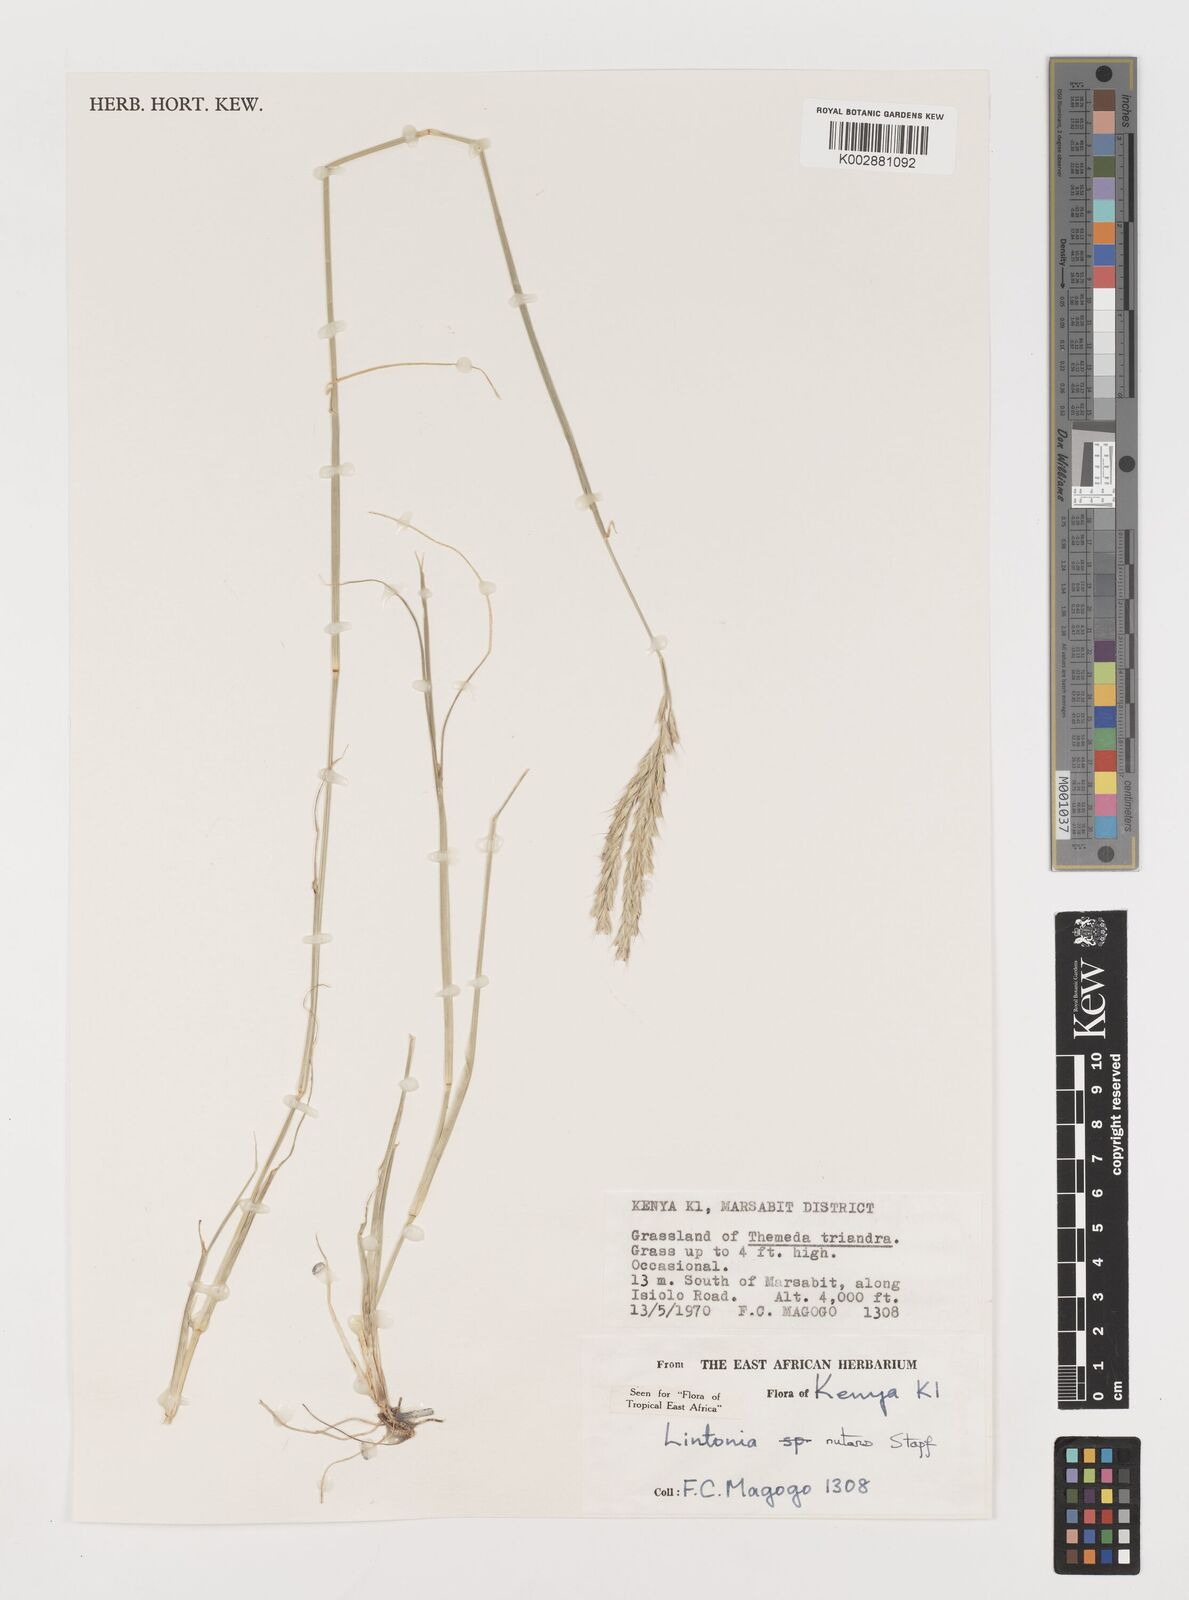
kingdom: Plantae
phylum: Tracheophyta
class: Liliopsida
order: Poales
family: Poaceae
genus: Chloris
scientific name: Chloris nutans
